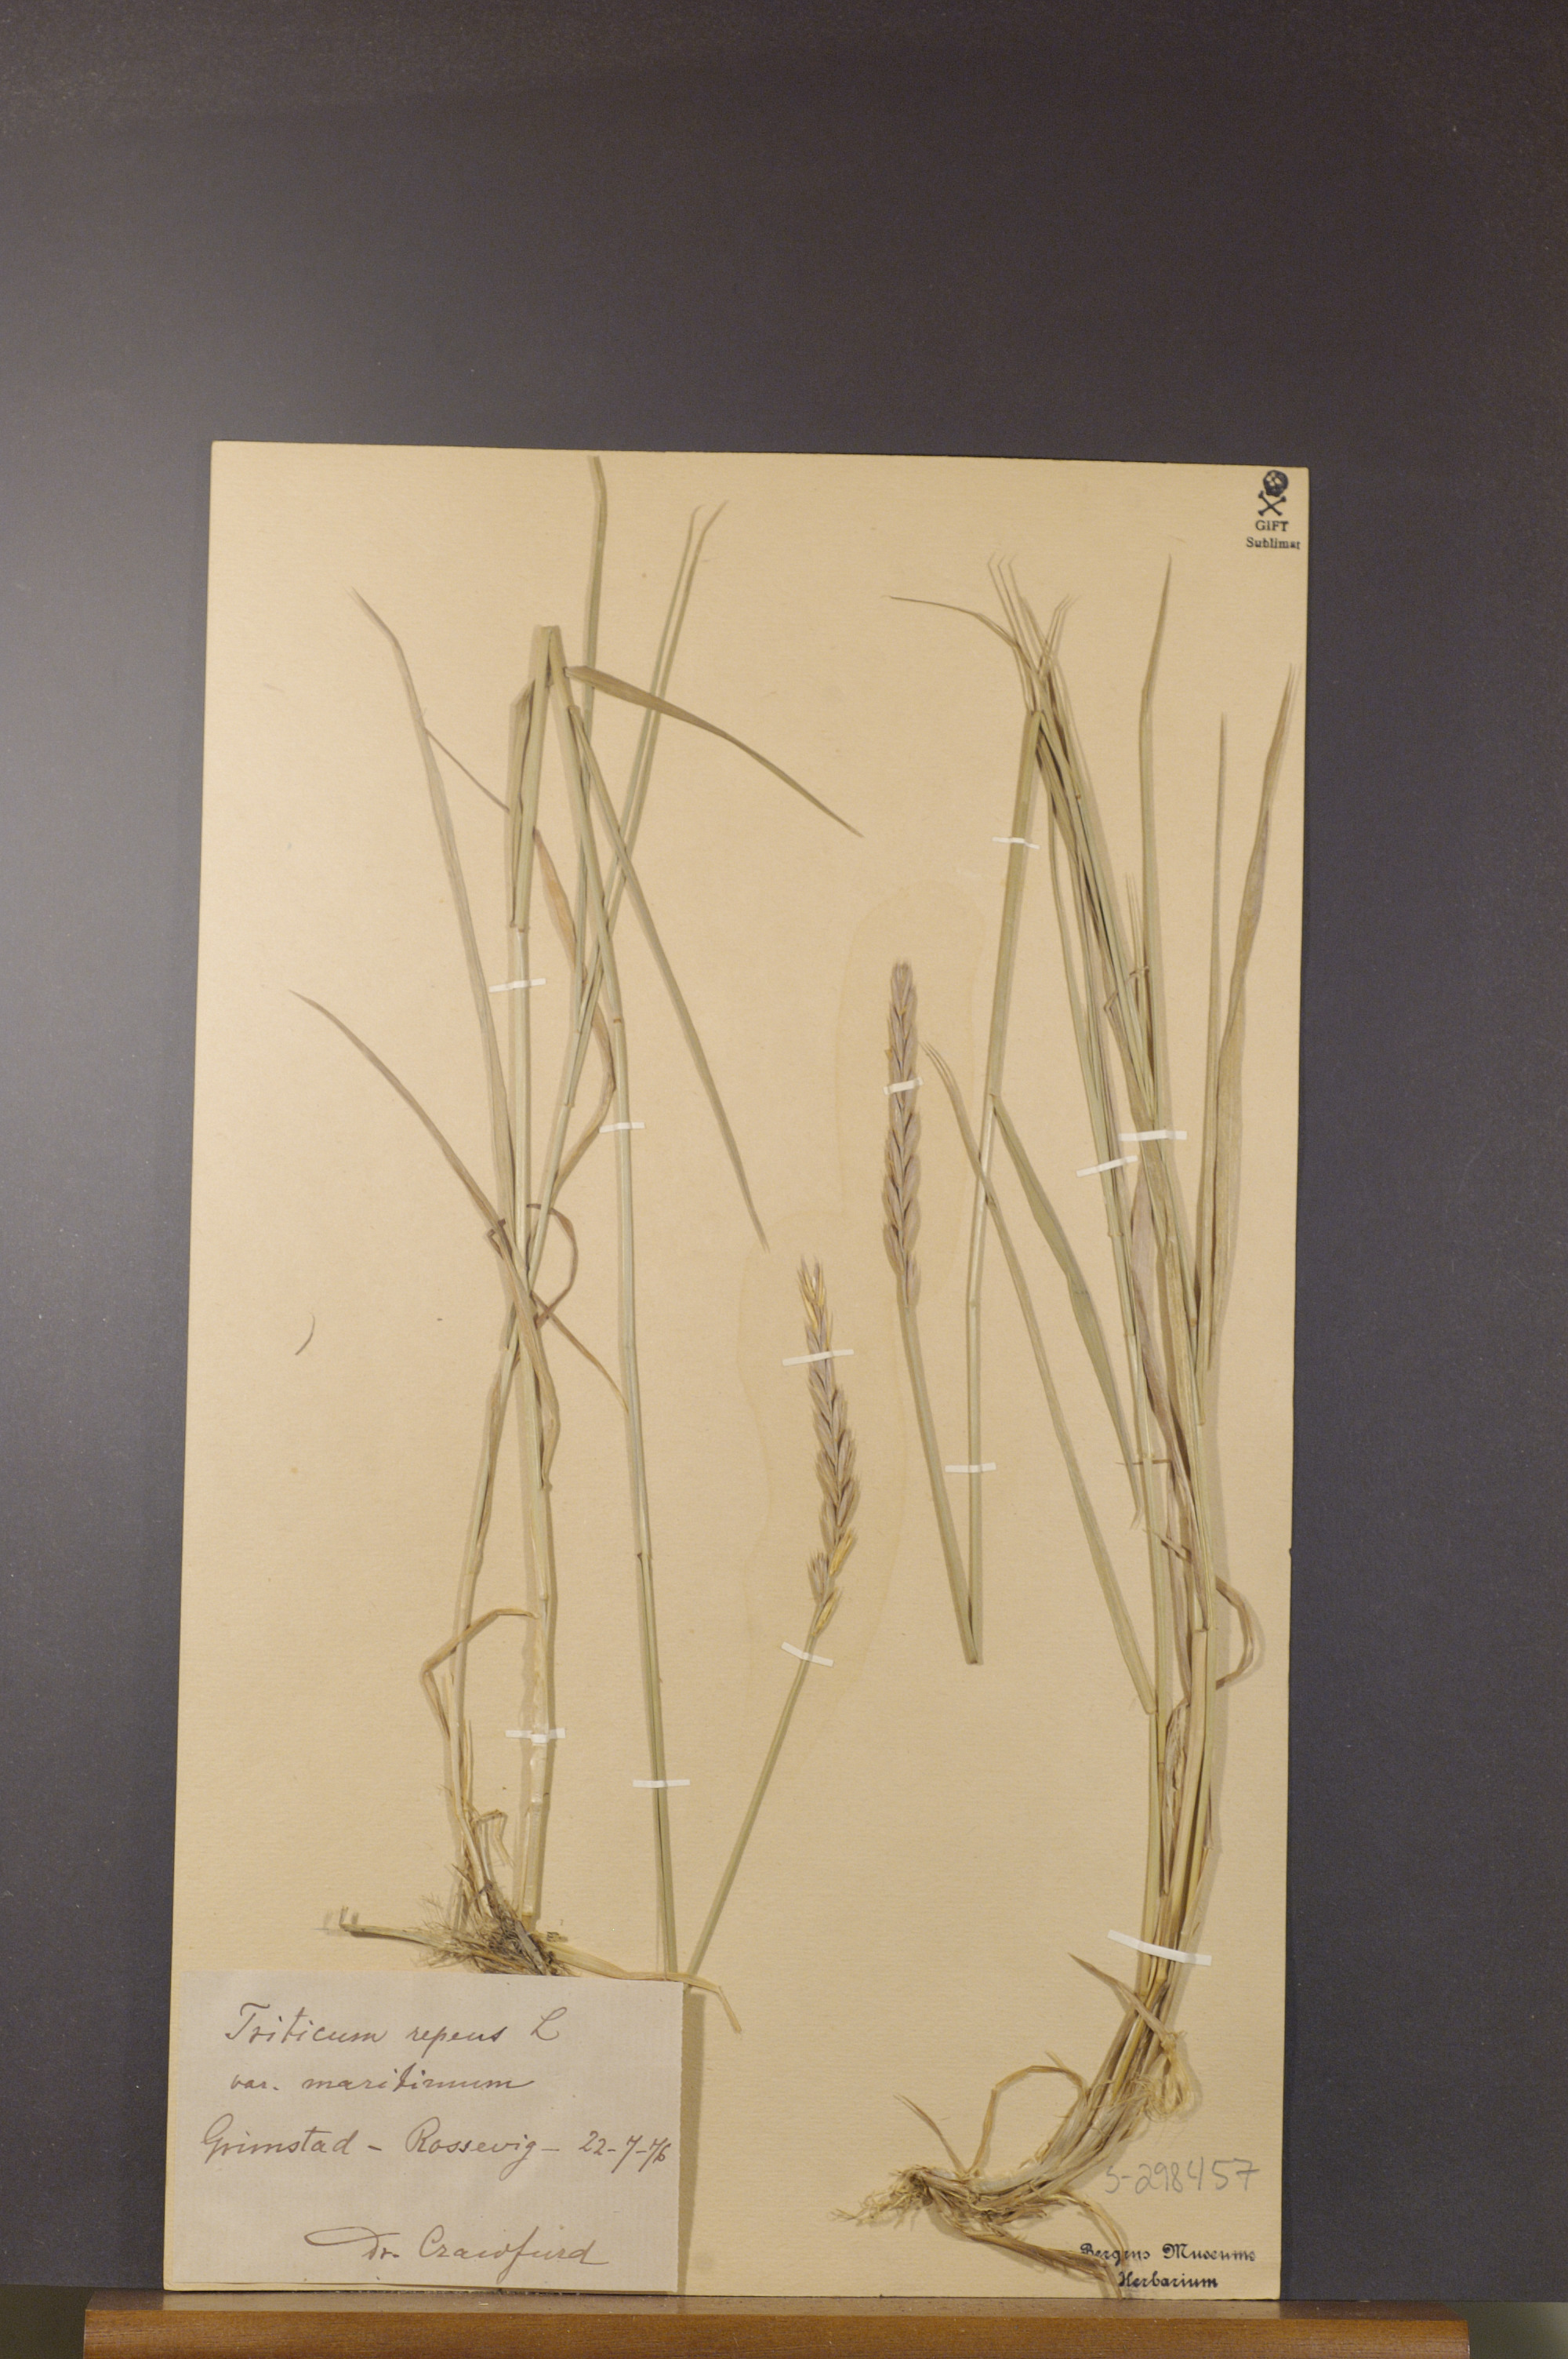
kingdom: Plantae
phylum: Tracheophyta
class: Liliopsida
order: Poales
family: Poaceae
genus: Elymus
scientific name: Elymus repens
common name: Quackgrass
